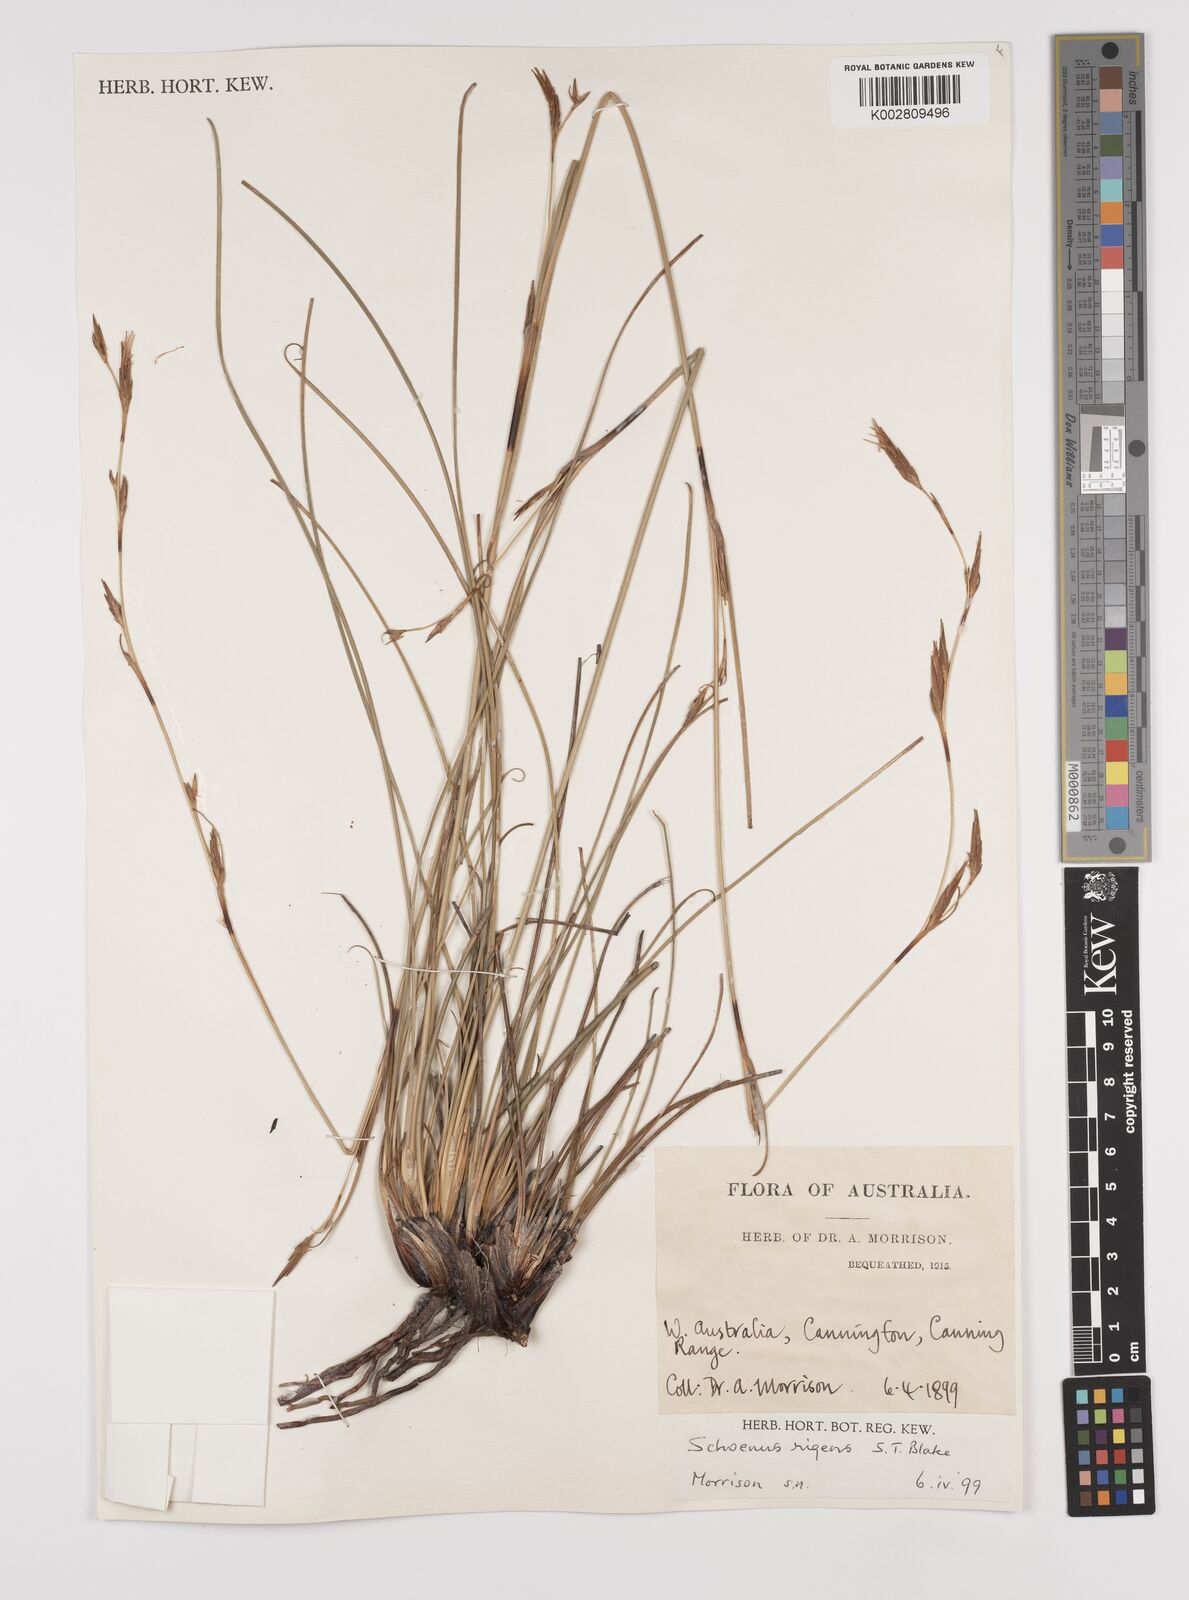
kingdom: Plantae
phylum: Tracheophyta
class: Liliopsida
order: Poales
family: Cyperaceae
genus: Schoenus
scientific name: Schoenus rigens
